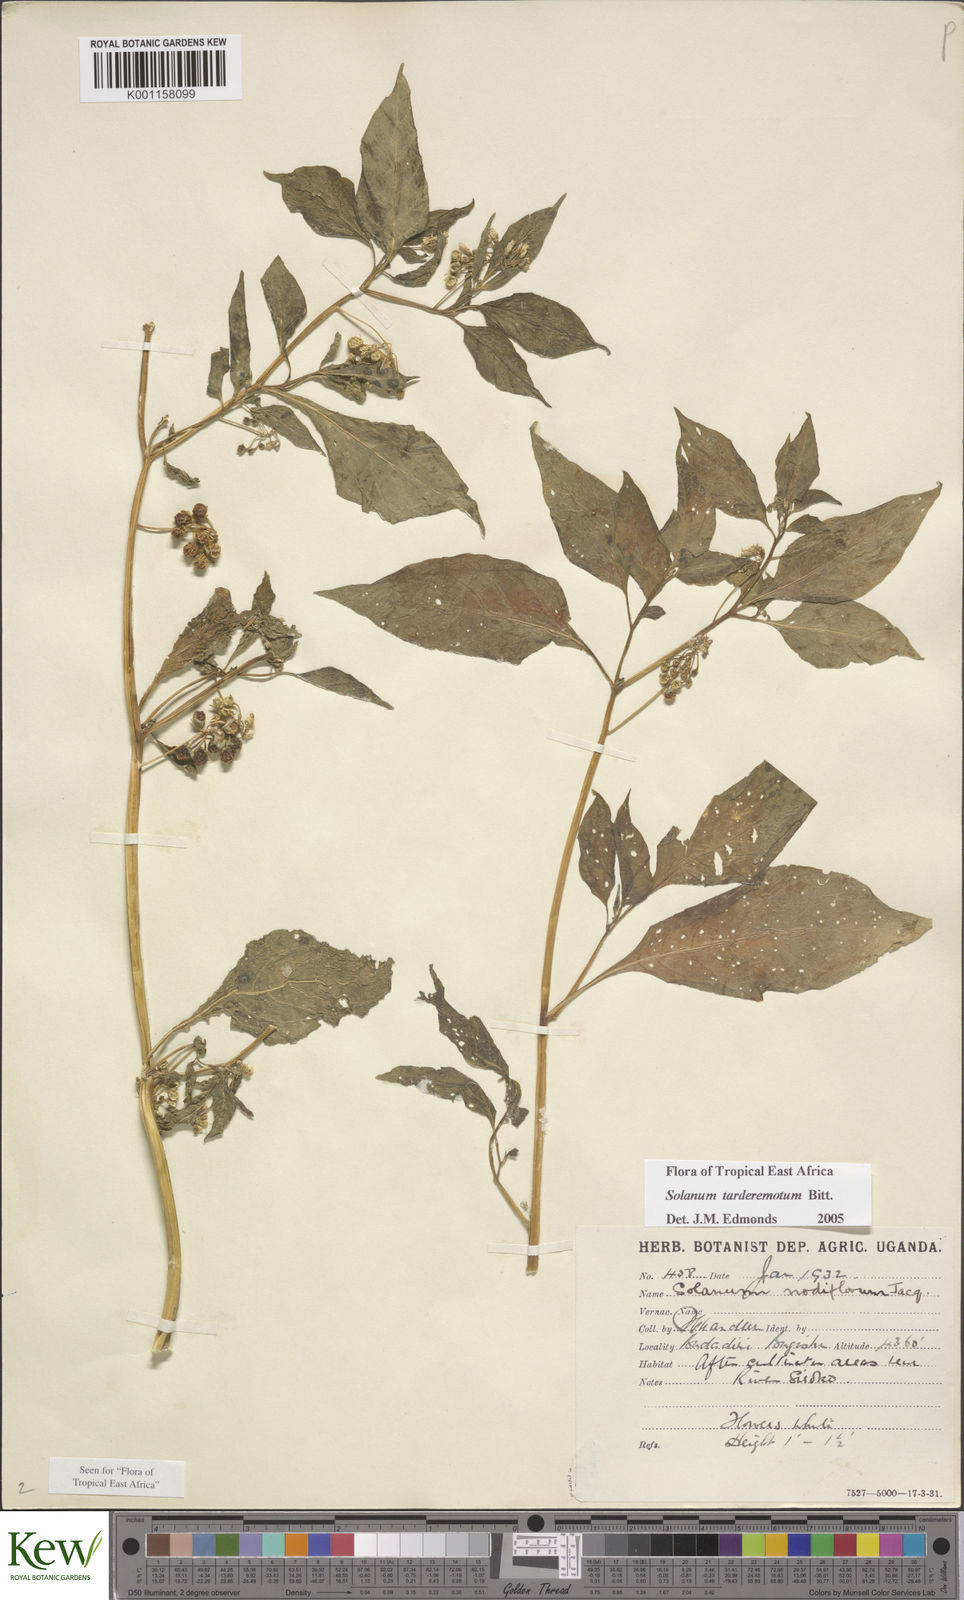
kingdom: Plantae
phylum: Tracheophyta
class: Magnoliopsida
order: Solanales
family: Solanaceae
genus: Solanum
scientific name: Solanum tarderemotum
